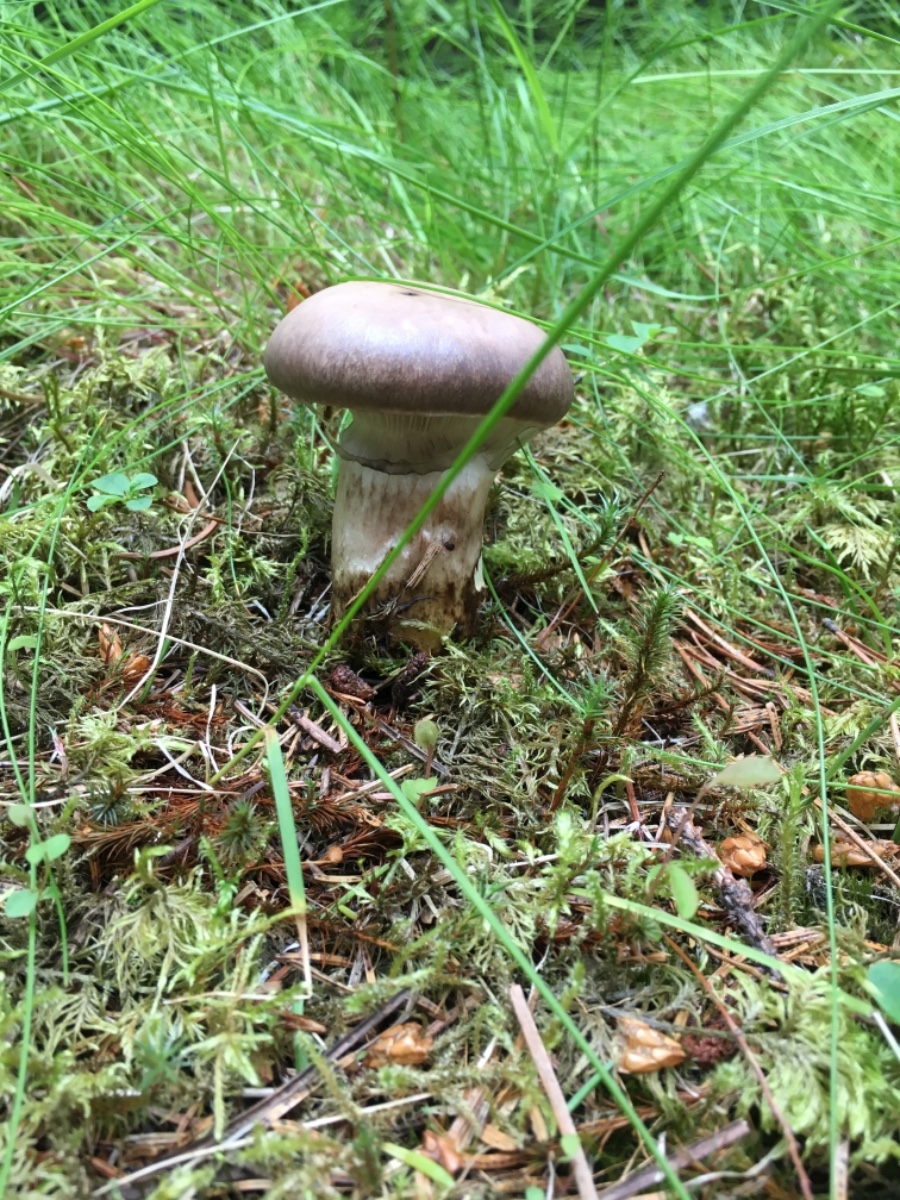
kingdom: Fungi
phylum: Basidiomycota
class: Agaricomycetes
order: Boletales
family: Gomphidiaceae
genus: Gomphidius
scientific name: Gomphidius glutinosus
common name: grå slimslør
